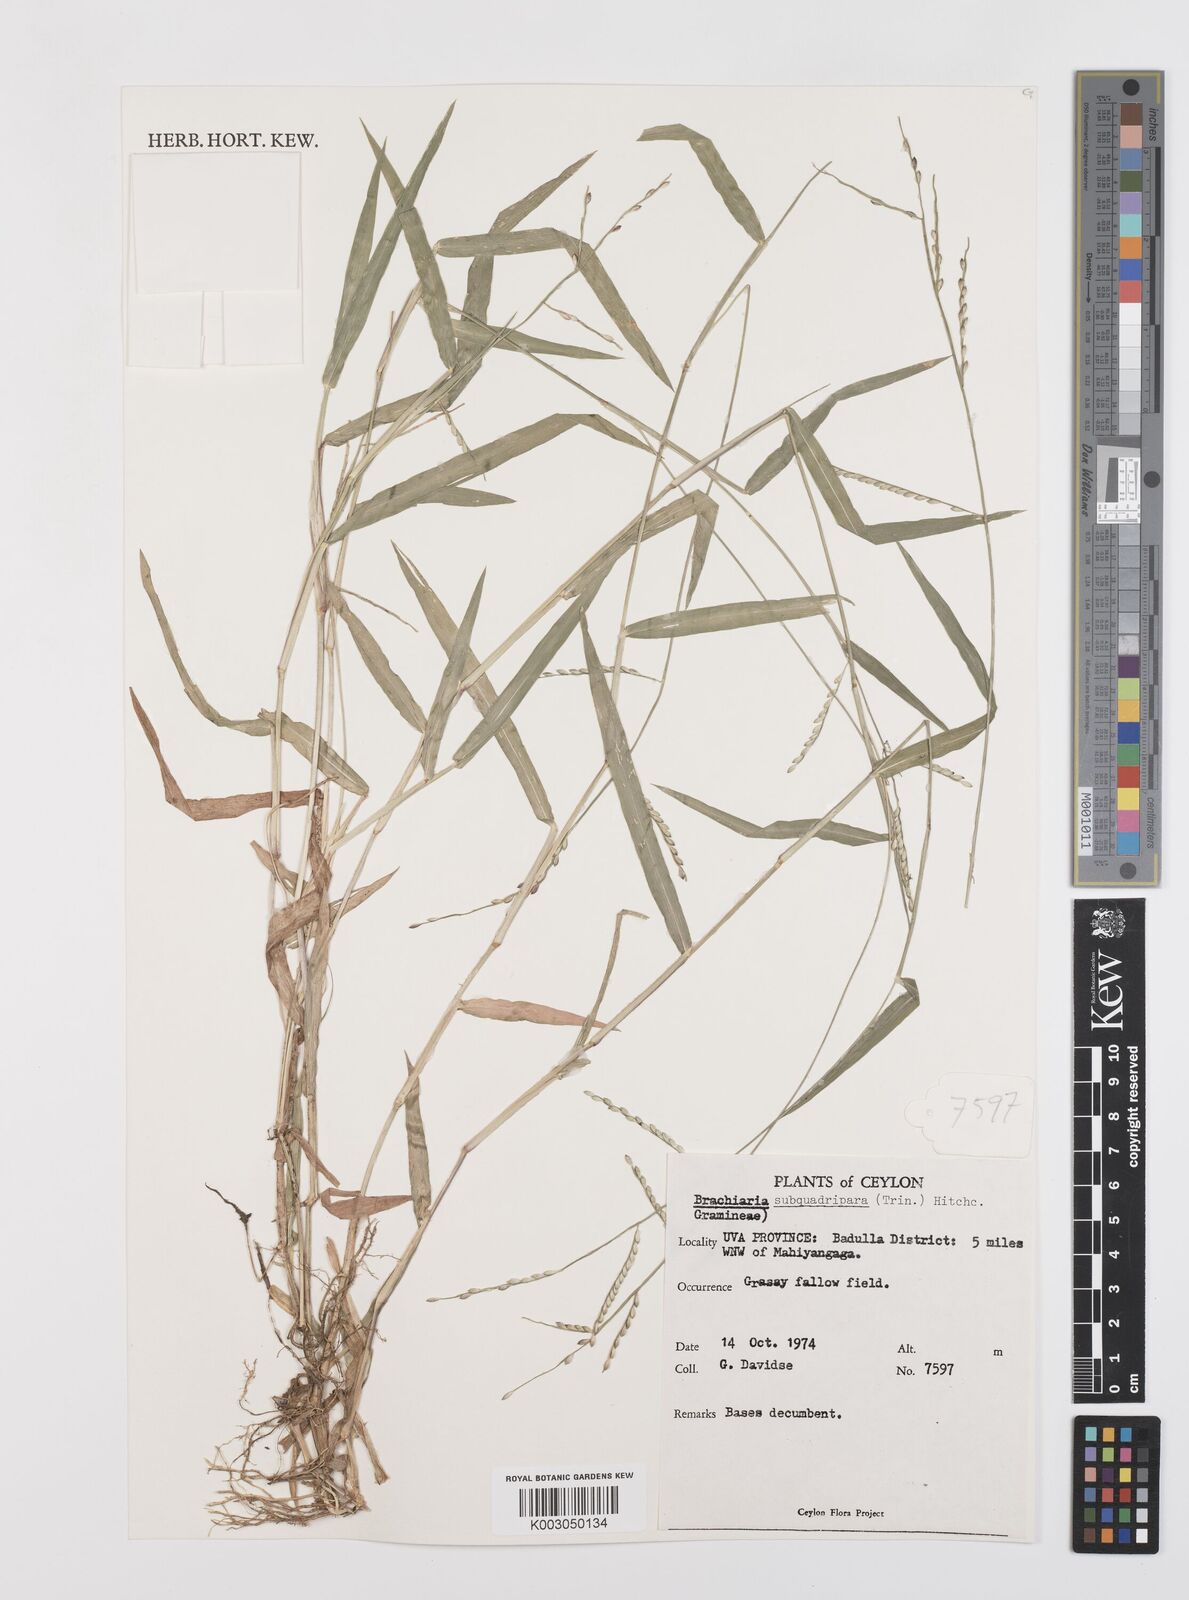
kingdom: Plantae
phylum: Tracheophyta
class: Liliopsida
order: Poales
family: Poaceae
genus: Urochloa
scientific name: Urochloa subquadripara
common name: Armgrass millet
